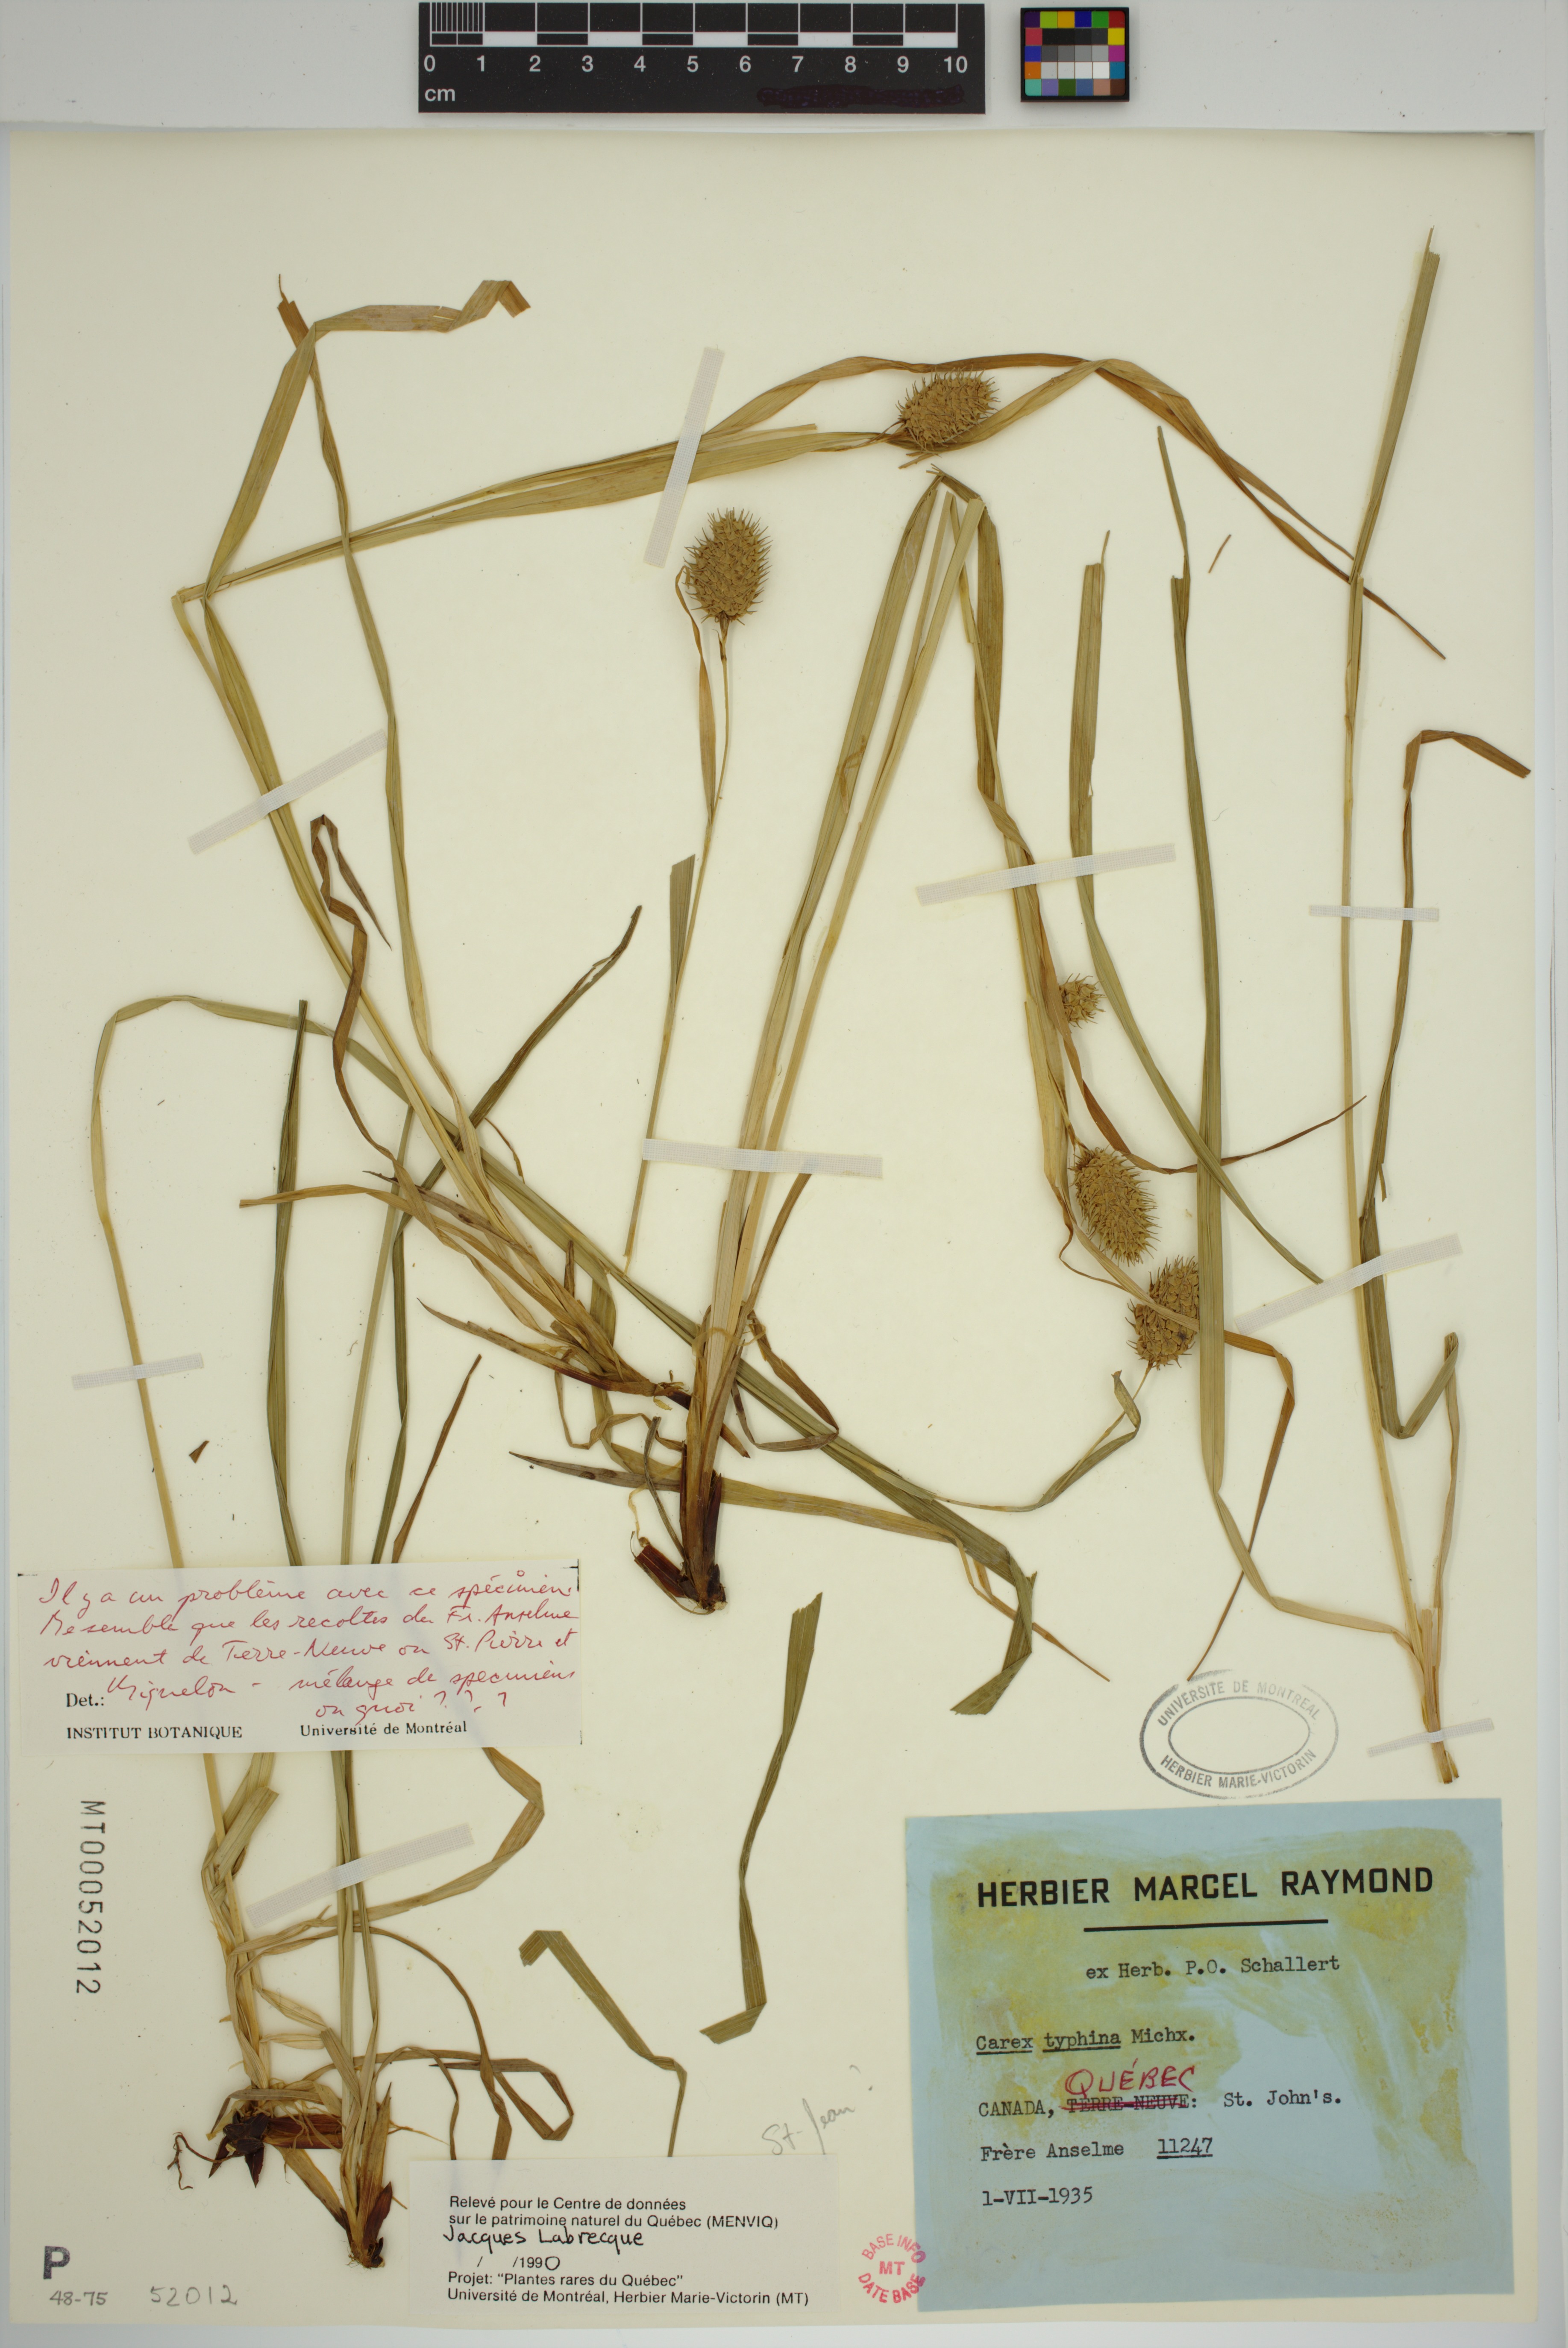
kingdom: Plantae
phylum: Tracheophyta
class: Liliopsida
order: Poales
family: Cyperaceae
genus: Carex
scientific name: Carex typhina
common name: Cattail sedge
